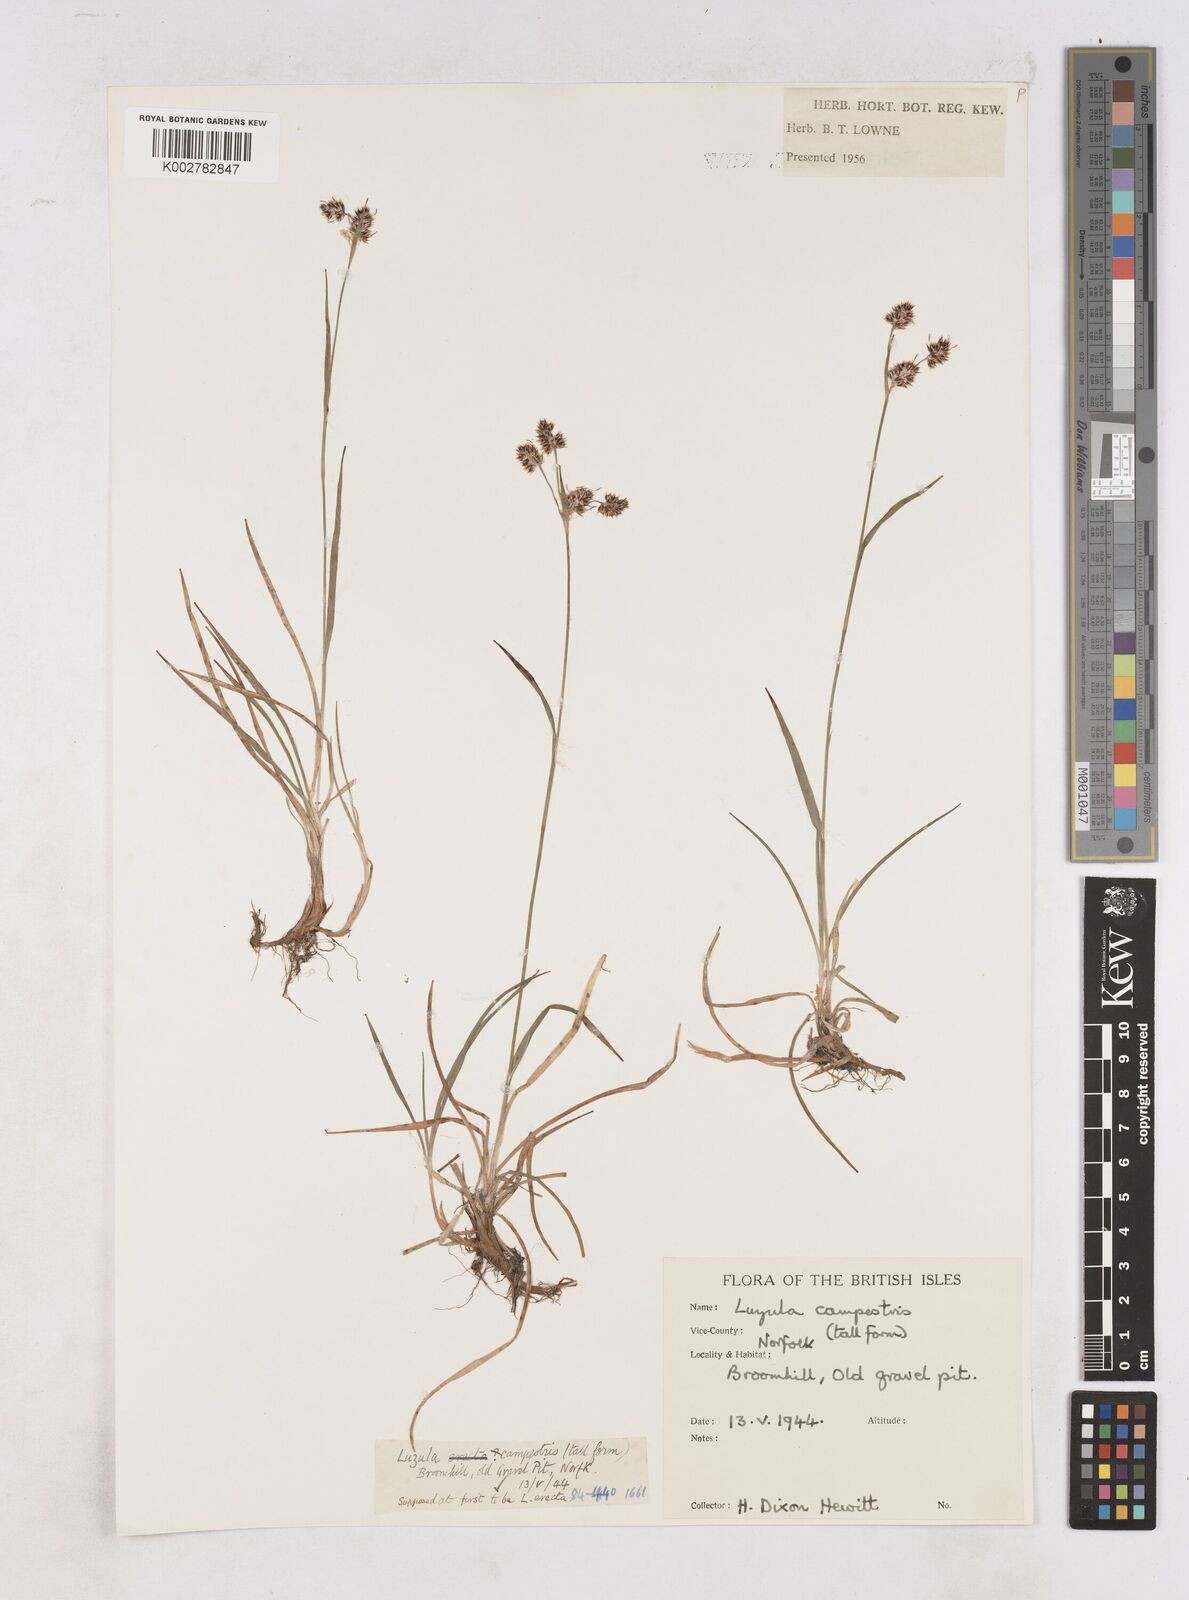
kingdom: Plantae
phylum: Tracheophyta
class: Liliopsida
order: Poales
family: Juncaceae
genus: Luzula
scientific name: Luzula campestris
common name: Field wood-rush
